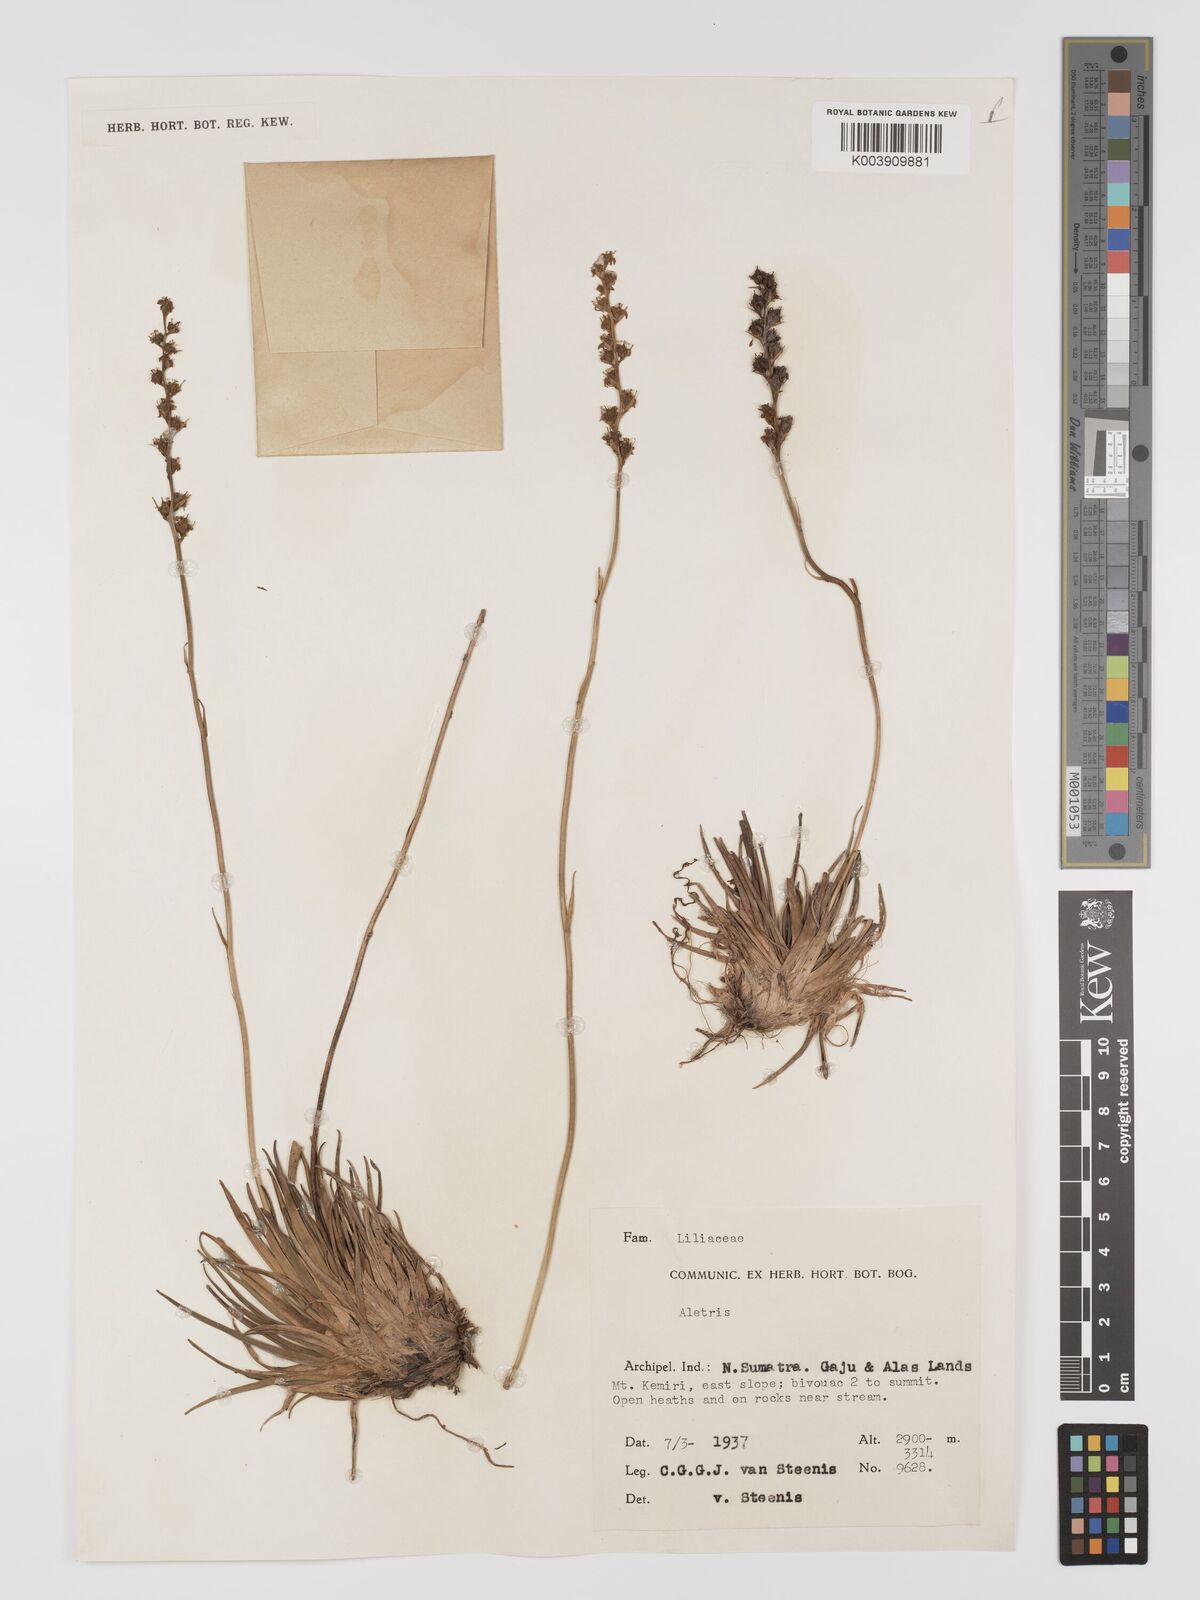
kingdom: Plantae
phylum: Tracheophyta
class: Liliopsida
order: Dioscoreales
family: Nartheciaceae
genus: Aletris
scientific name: Aletris
